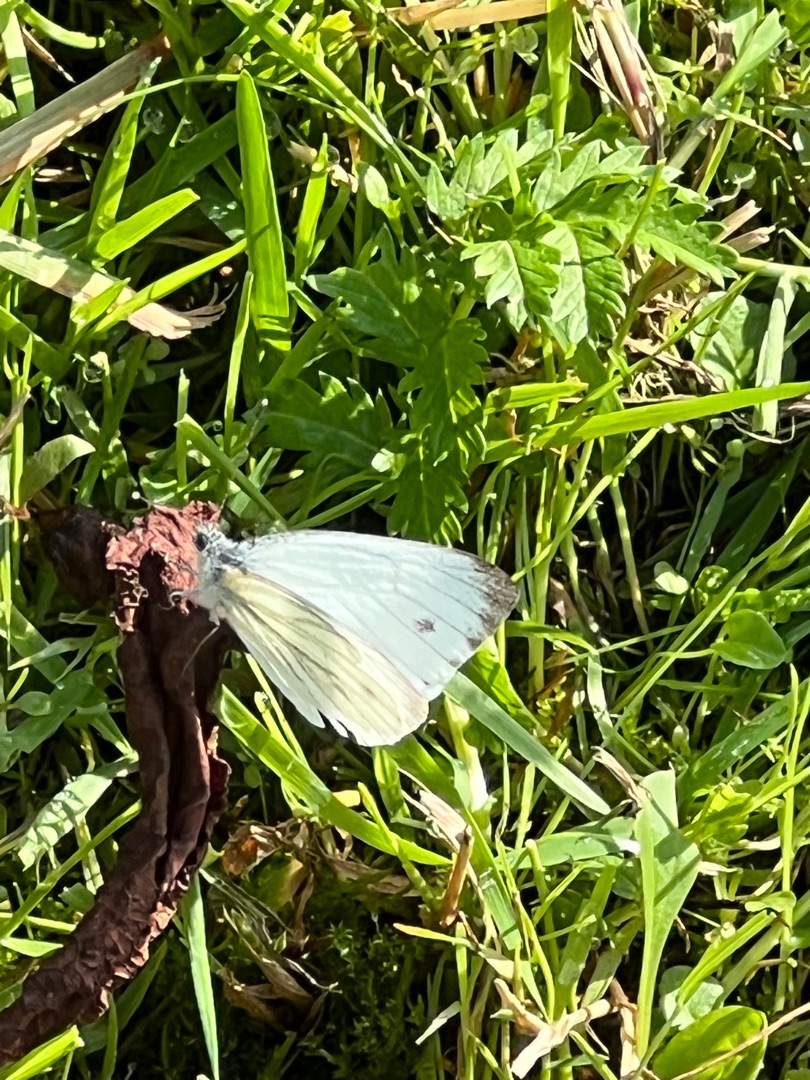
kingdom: Animalia
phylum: Arthropoda
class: Insecta
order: Lepidoptera
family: Pieridae
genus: Pieris
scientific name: Pieris napi
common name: Grønåret kålsommerfugl
